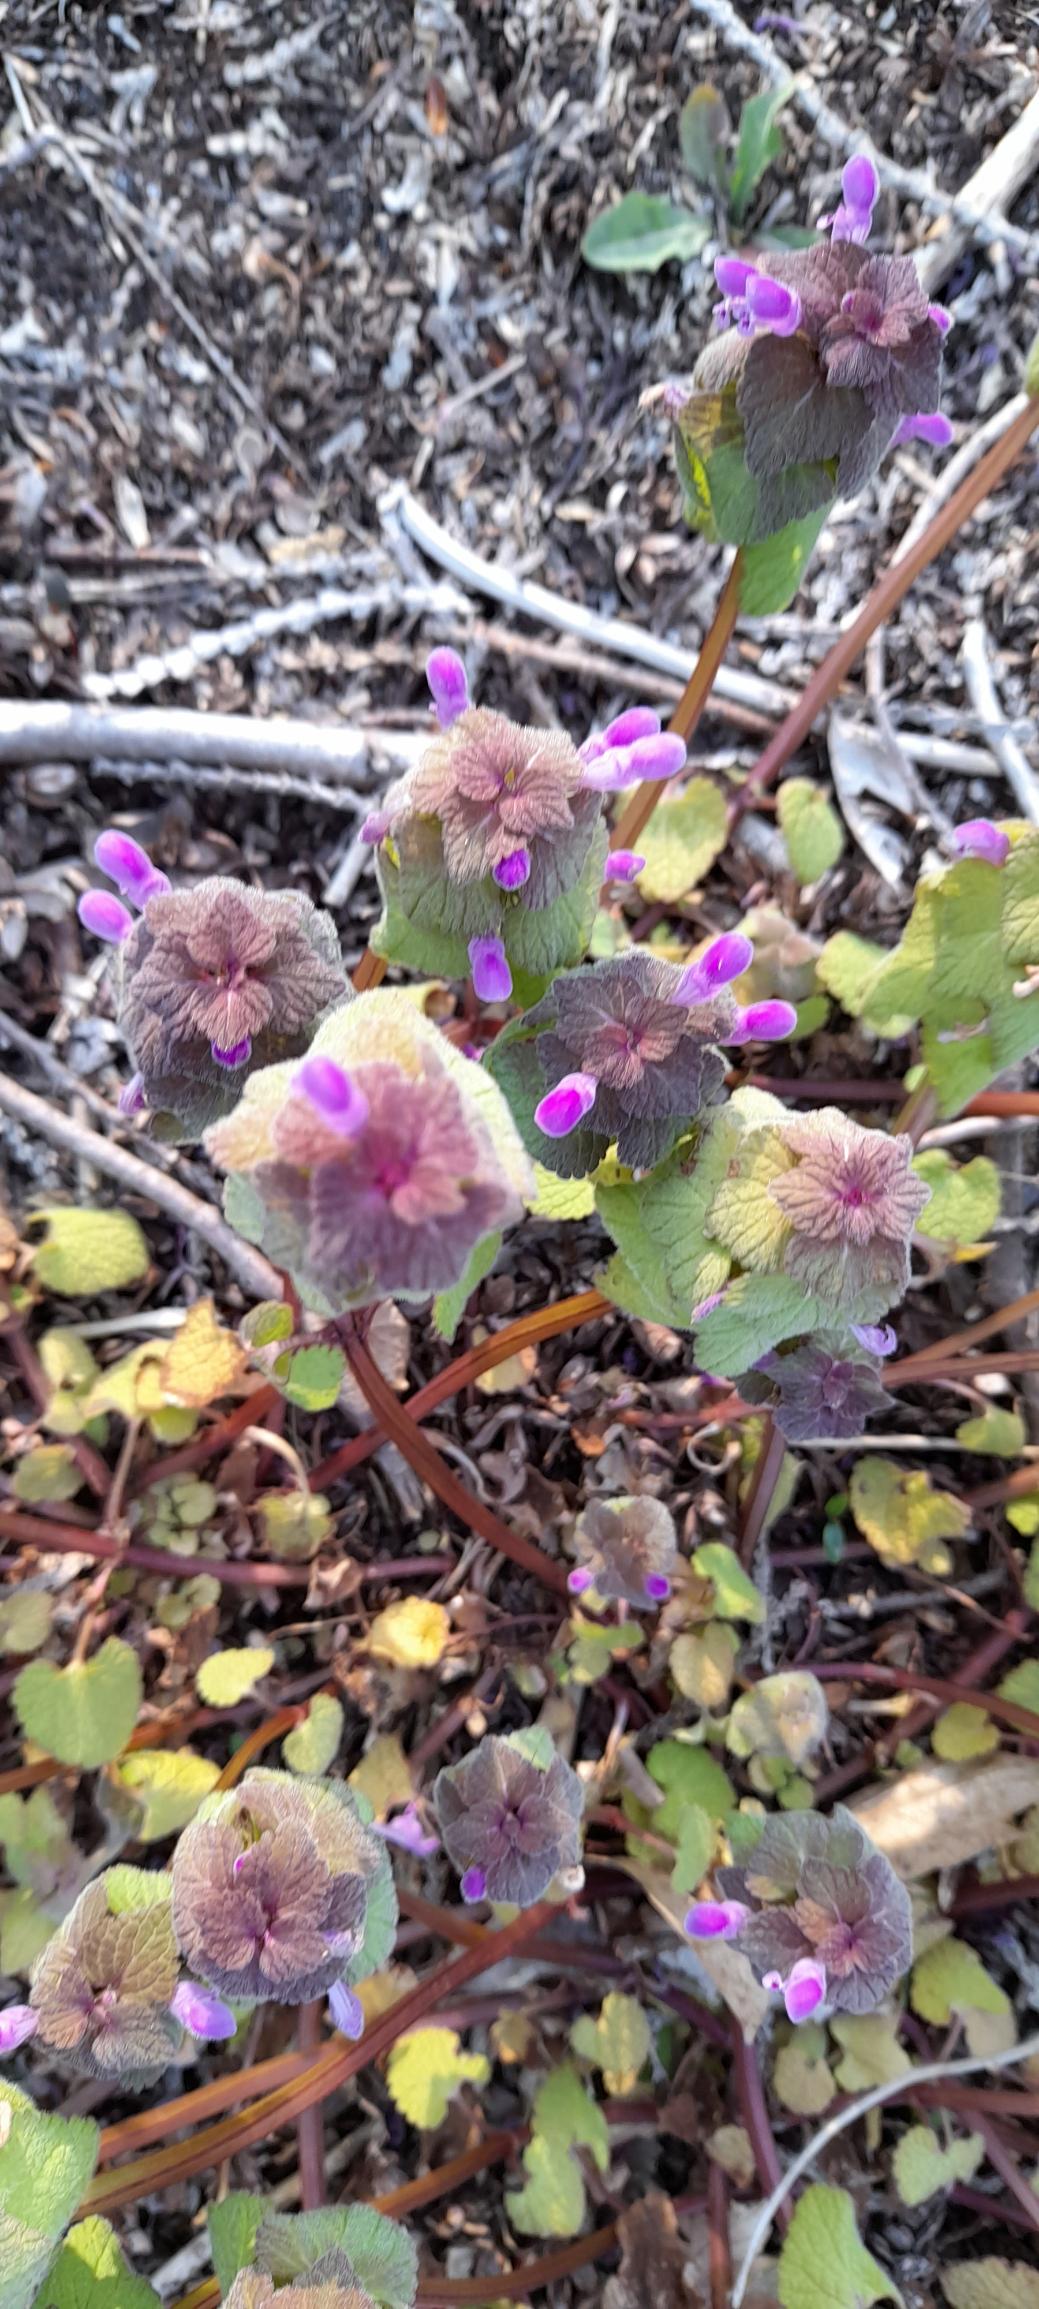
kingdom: Plantae
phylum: Tracheophyta
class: Magnoliopsida
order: Lamiales
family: Lamiaceae
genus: Lamium
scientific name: Lamium purpureum
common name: Rød tvetand
